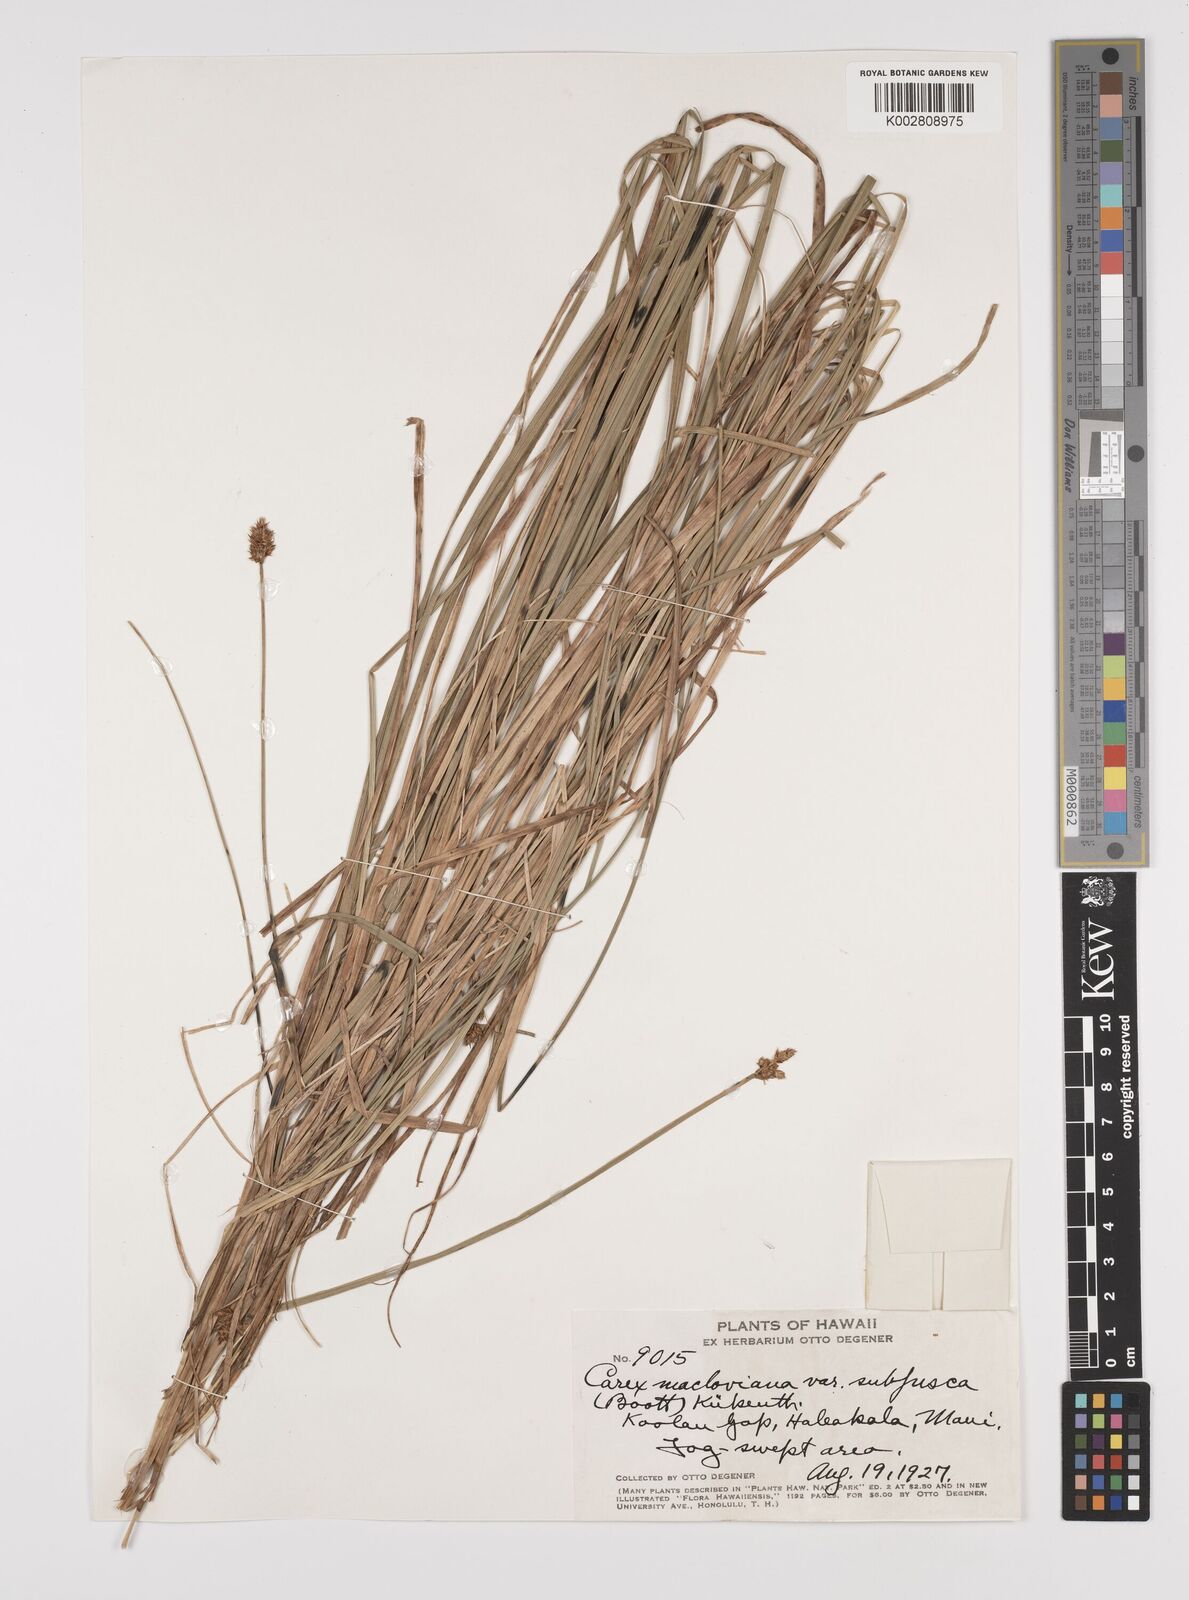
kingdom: Plantae
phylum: Tracheophyta
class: Liliopsida
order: Poales
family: Cyperaceae
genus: Carex
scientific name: Carex subfusca
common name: Brown sedge
